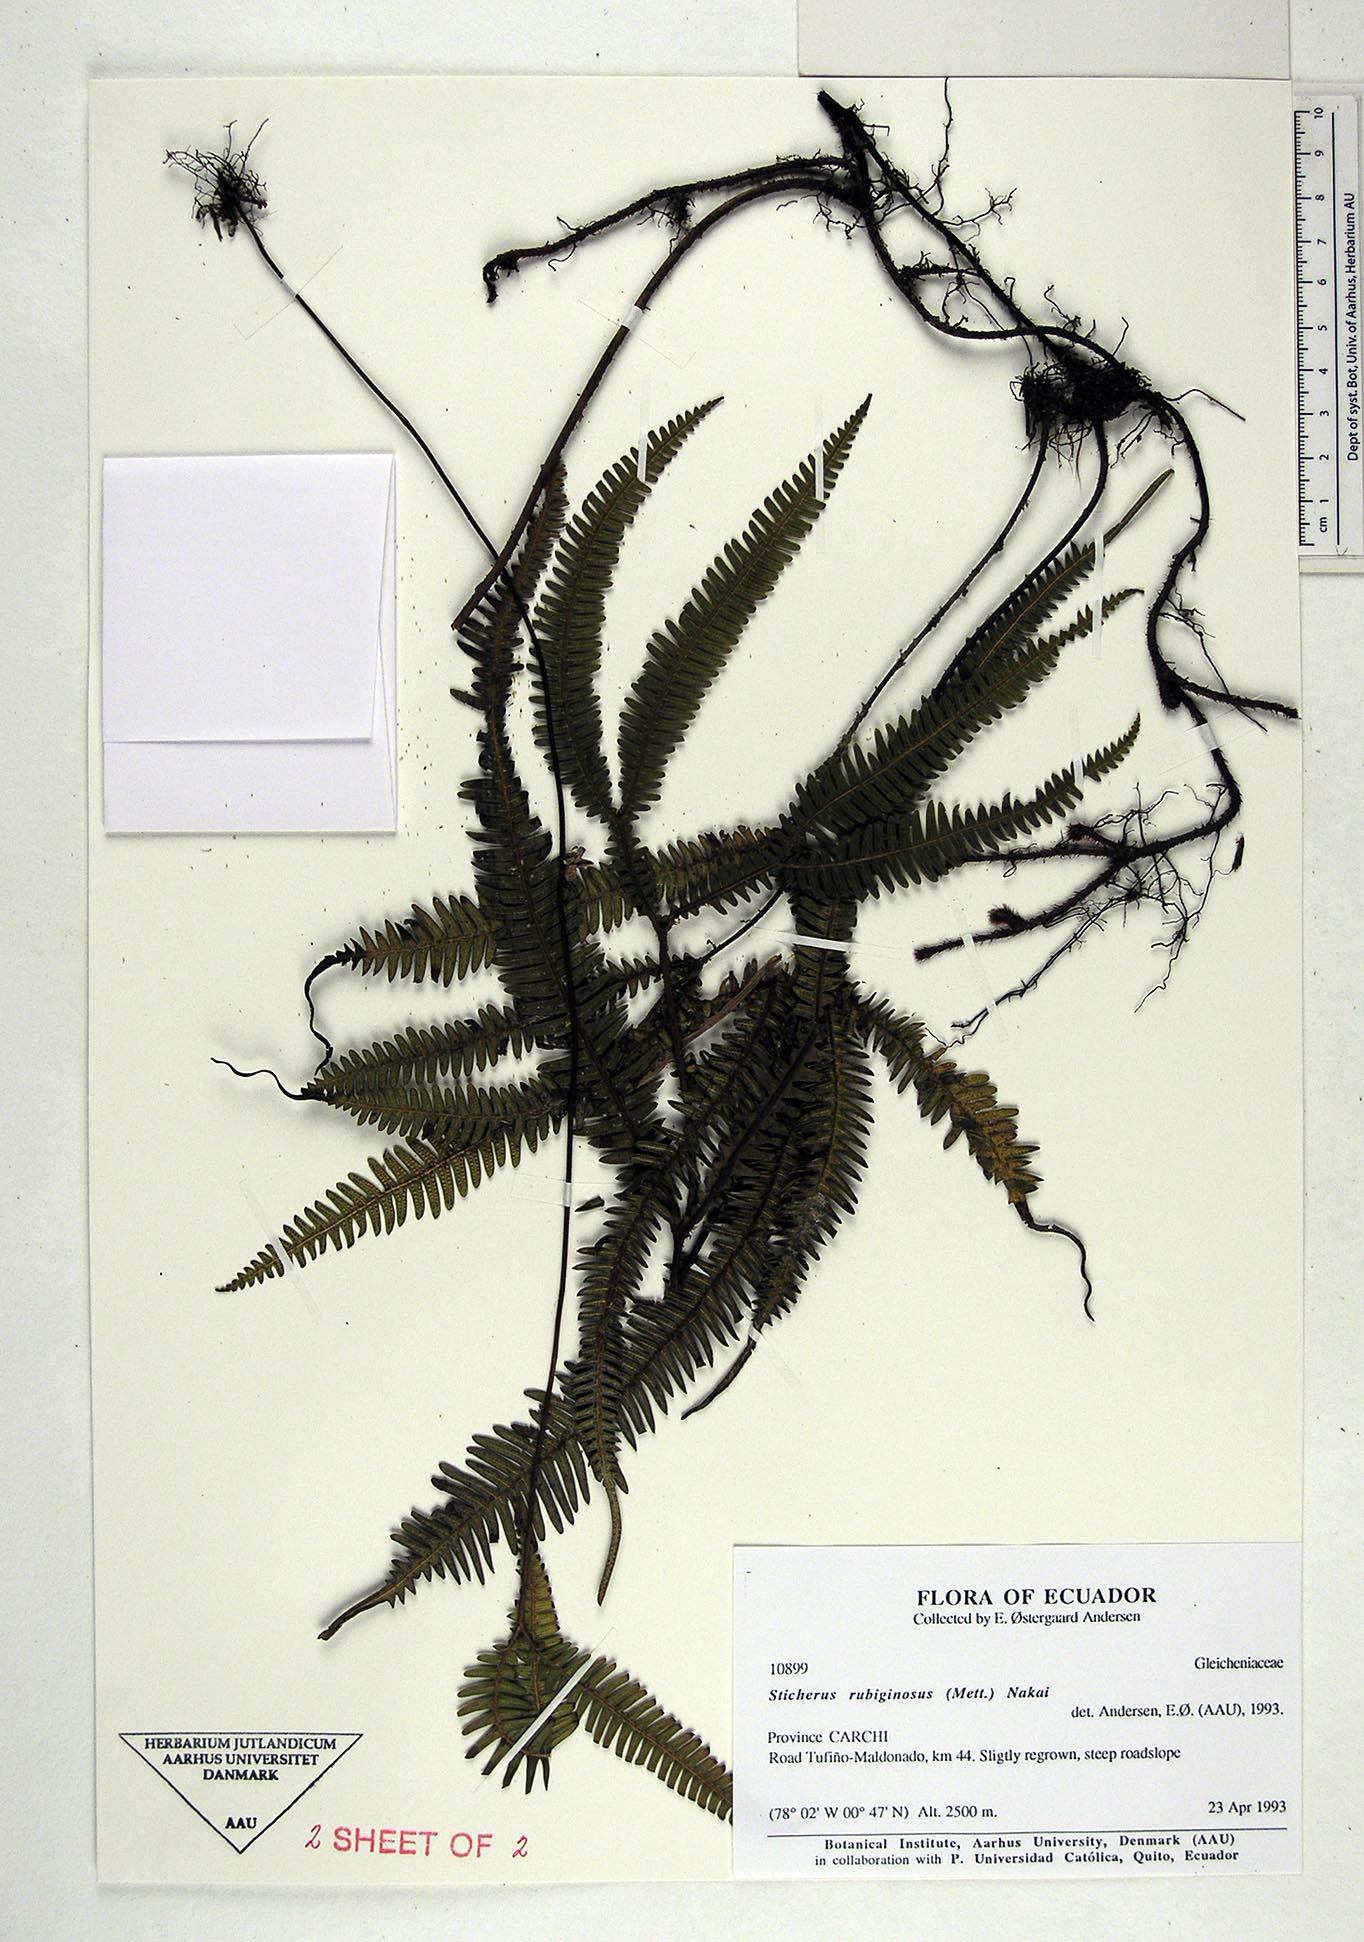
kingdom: Plantae
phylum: Tracheophyta
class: Polypodiopsida
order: Gleicheniales
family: Gleicheniaceae
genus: Sticherus
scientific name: Sticherus rubiginosus
